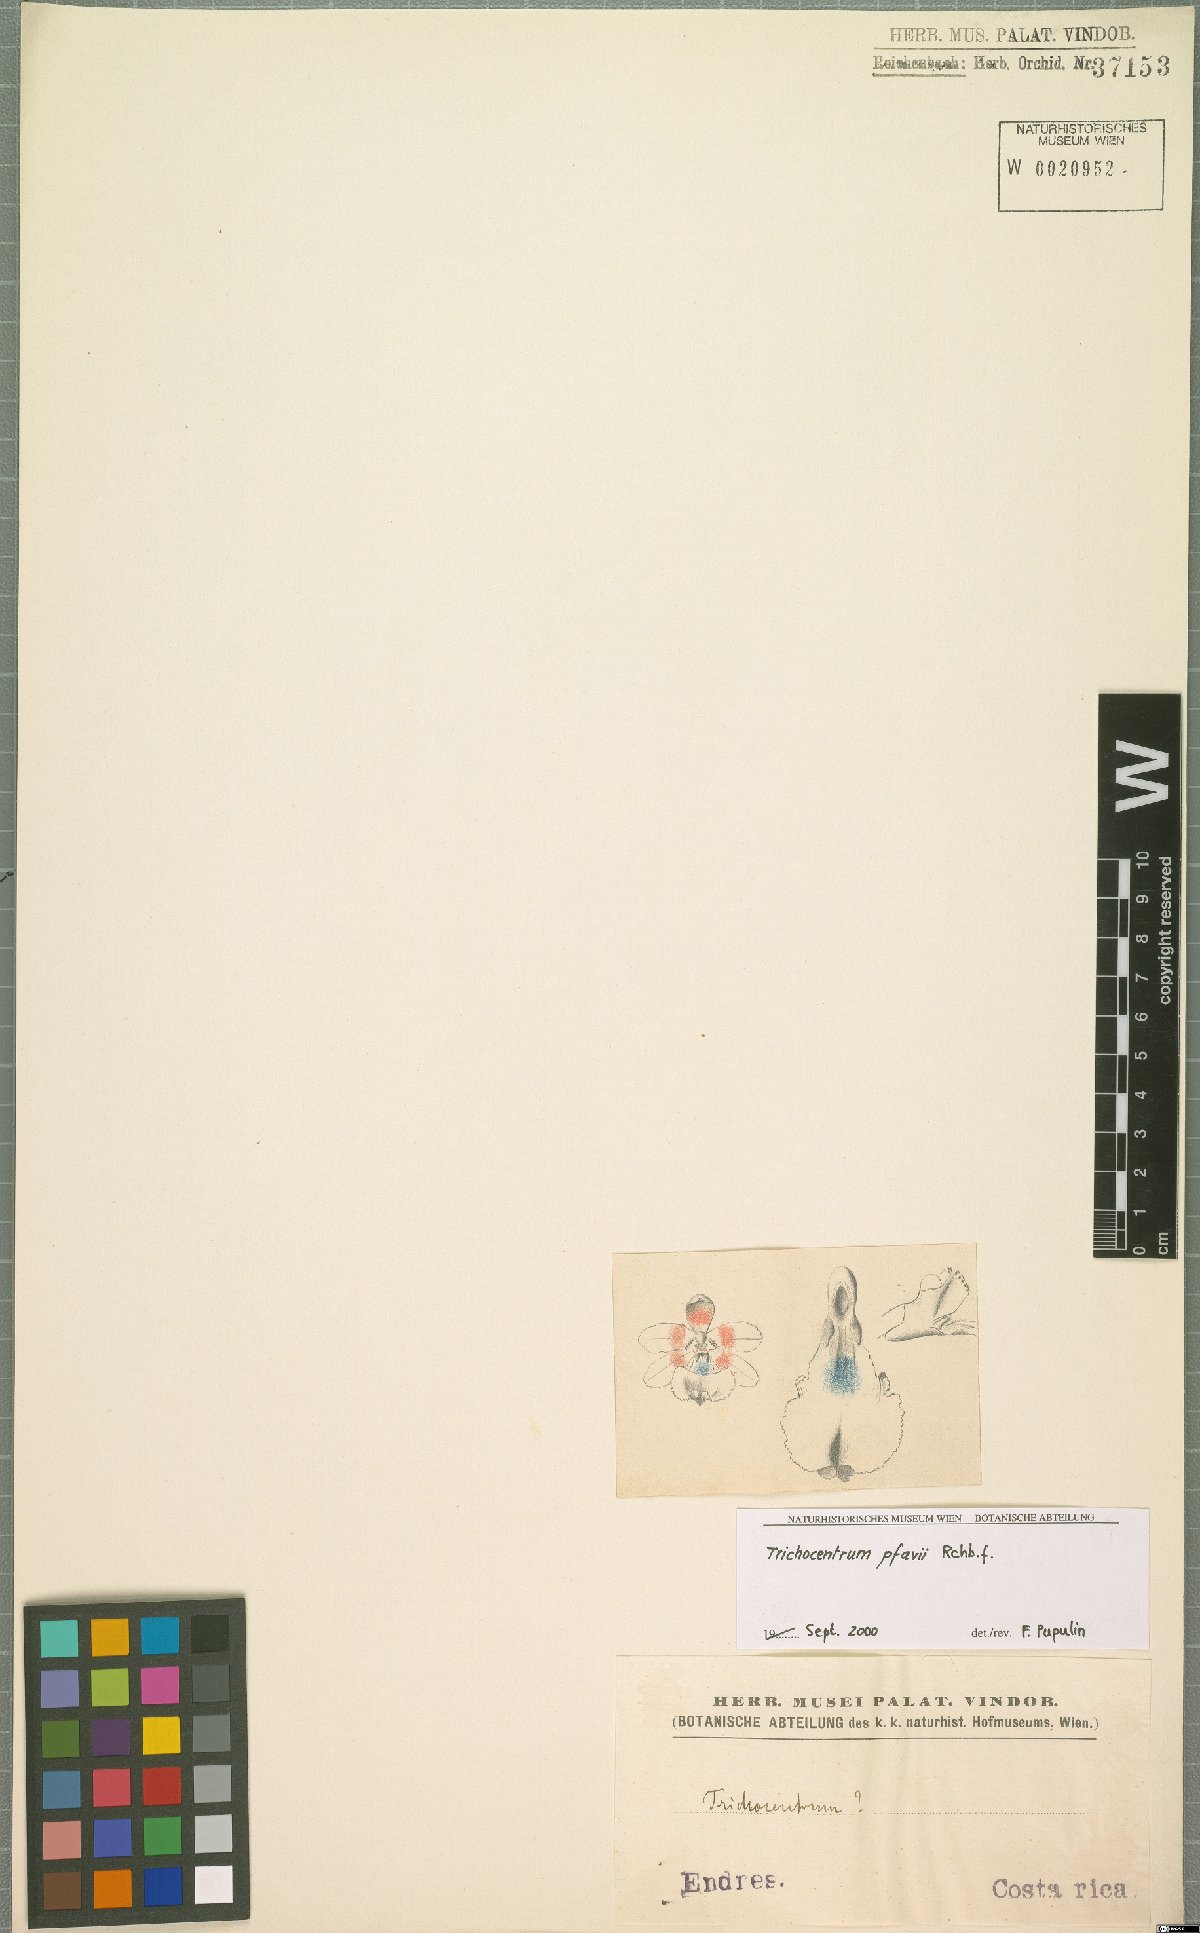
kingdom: Plantae
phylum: Tracheophyta
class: Liliopsida
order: Asparagales
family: Orchidaceae
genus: Trichocentrum
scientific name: Trichocentrum pfavii
